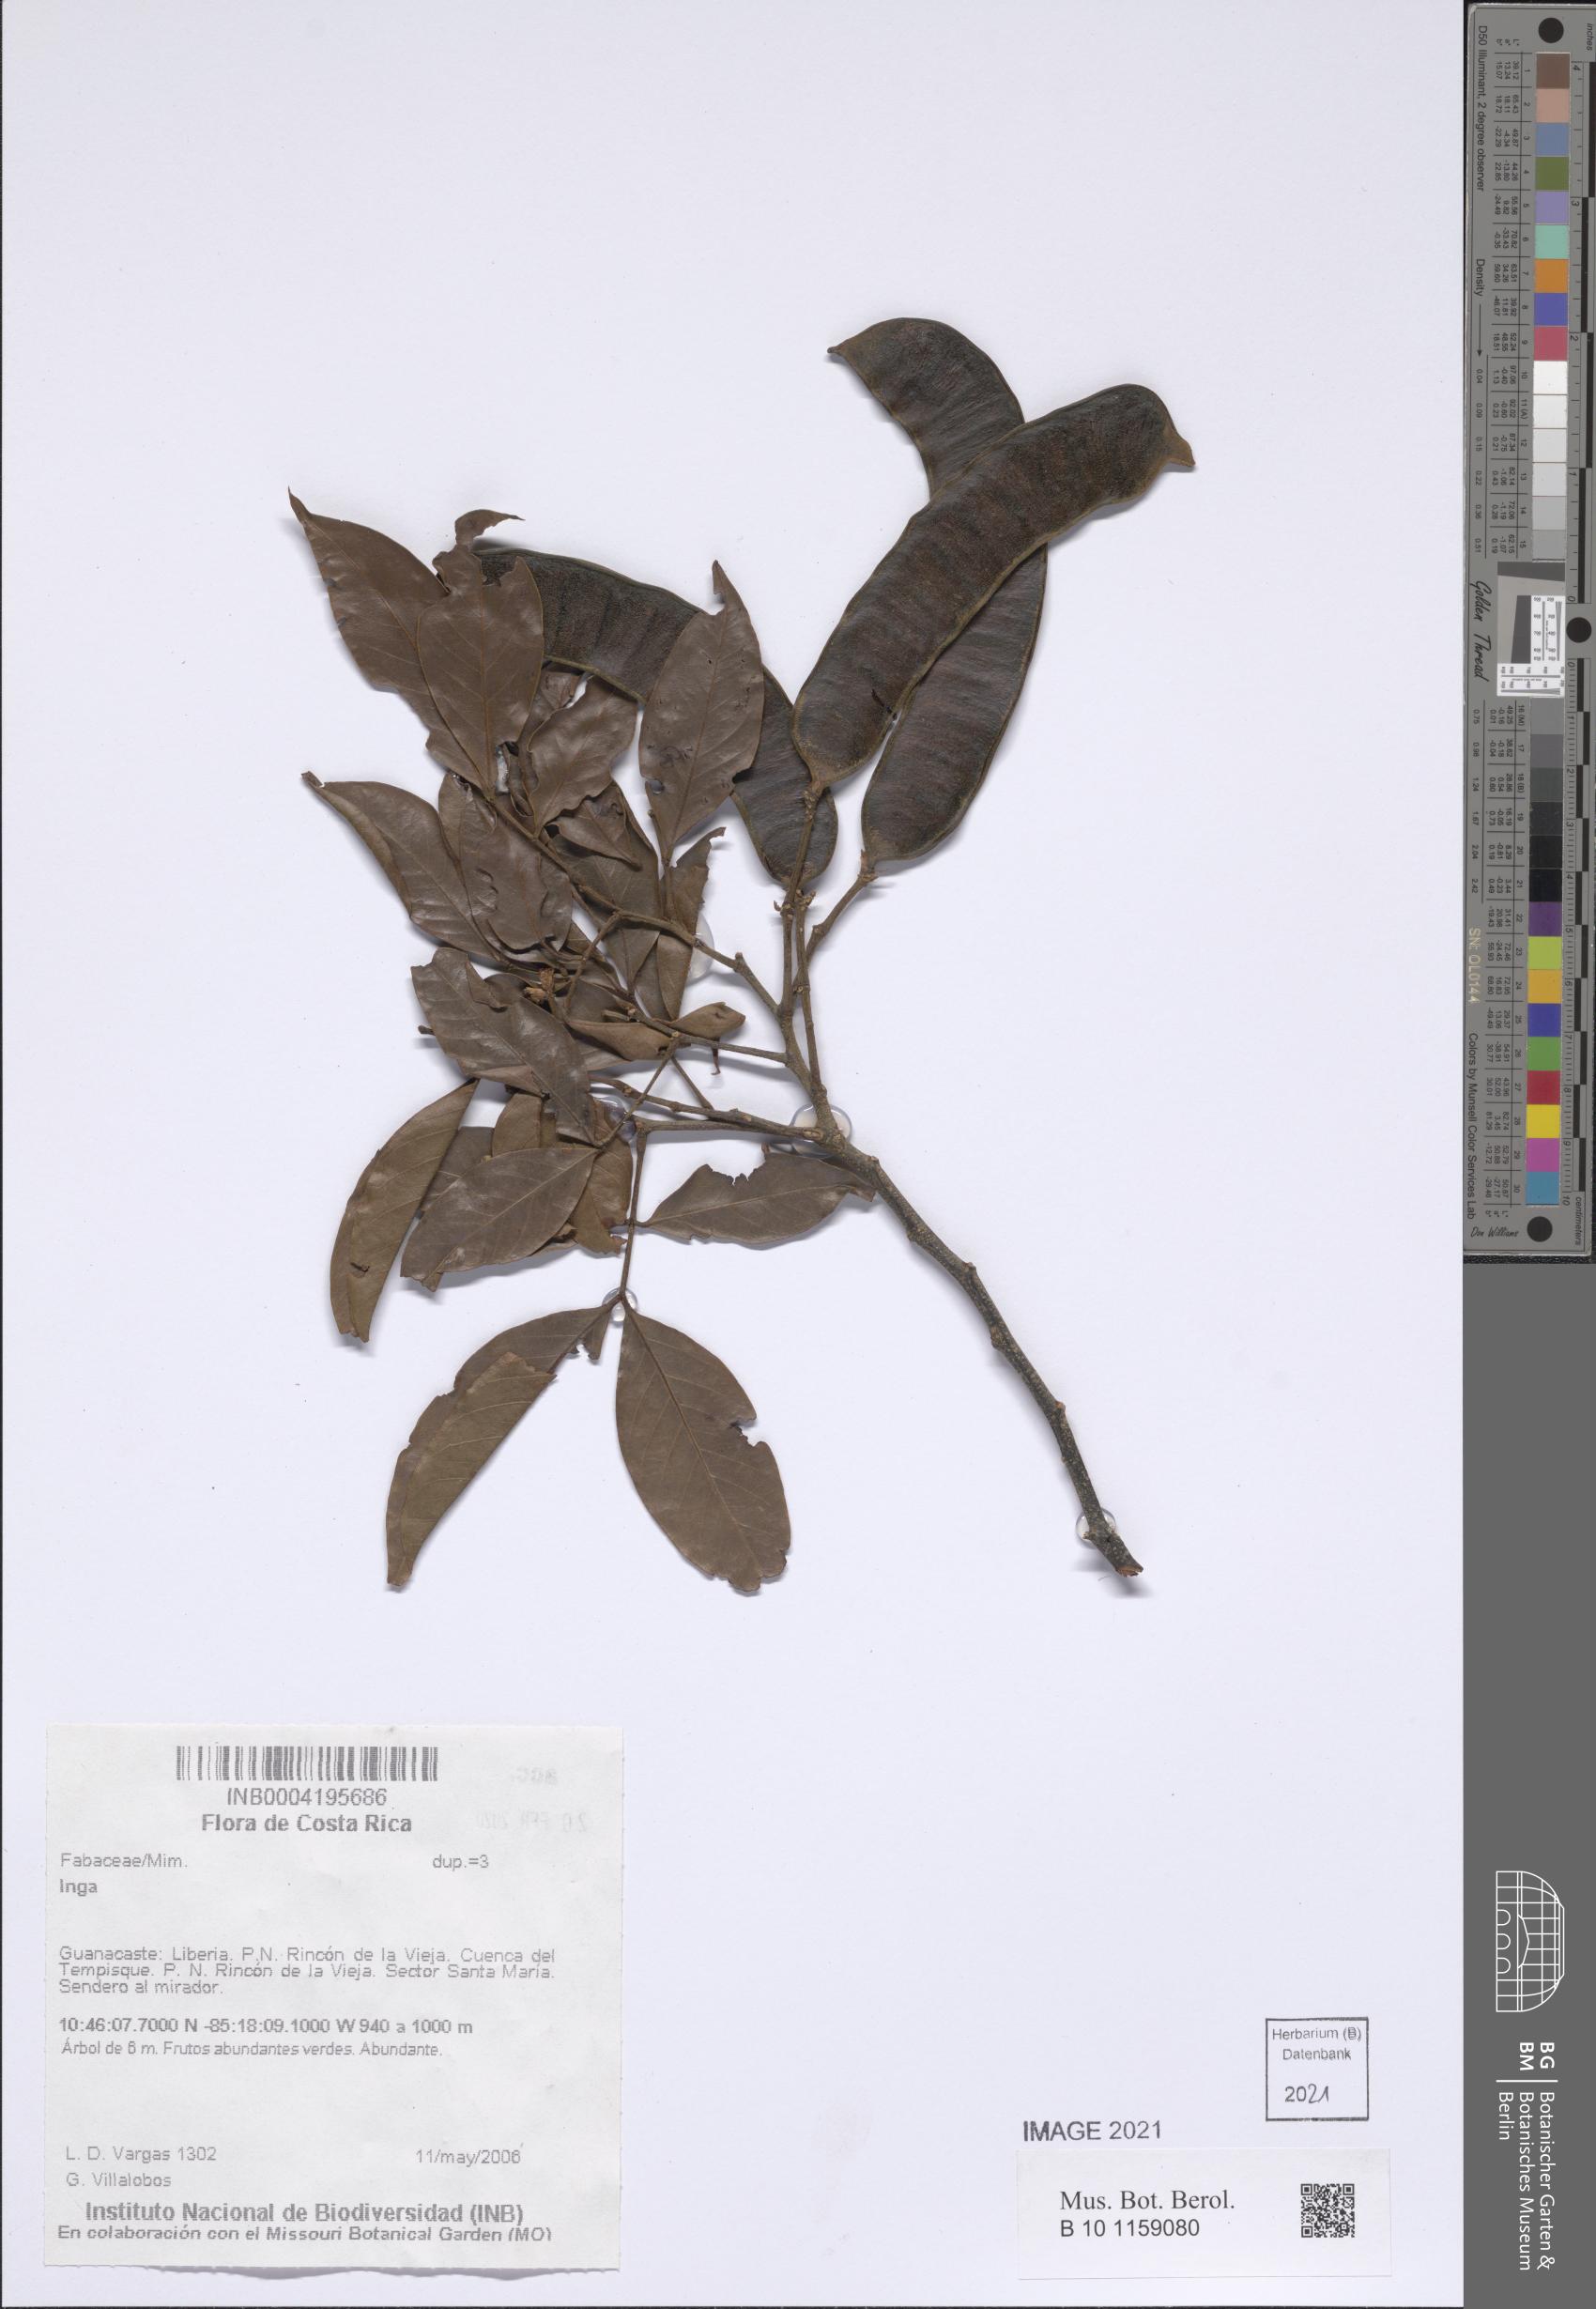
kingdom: Plantae
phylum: Tracheophyta
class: Magnoliopsida
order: Fabales
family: Fabaceae
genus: Inga
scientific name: Inga
